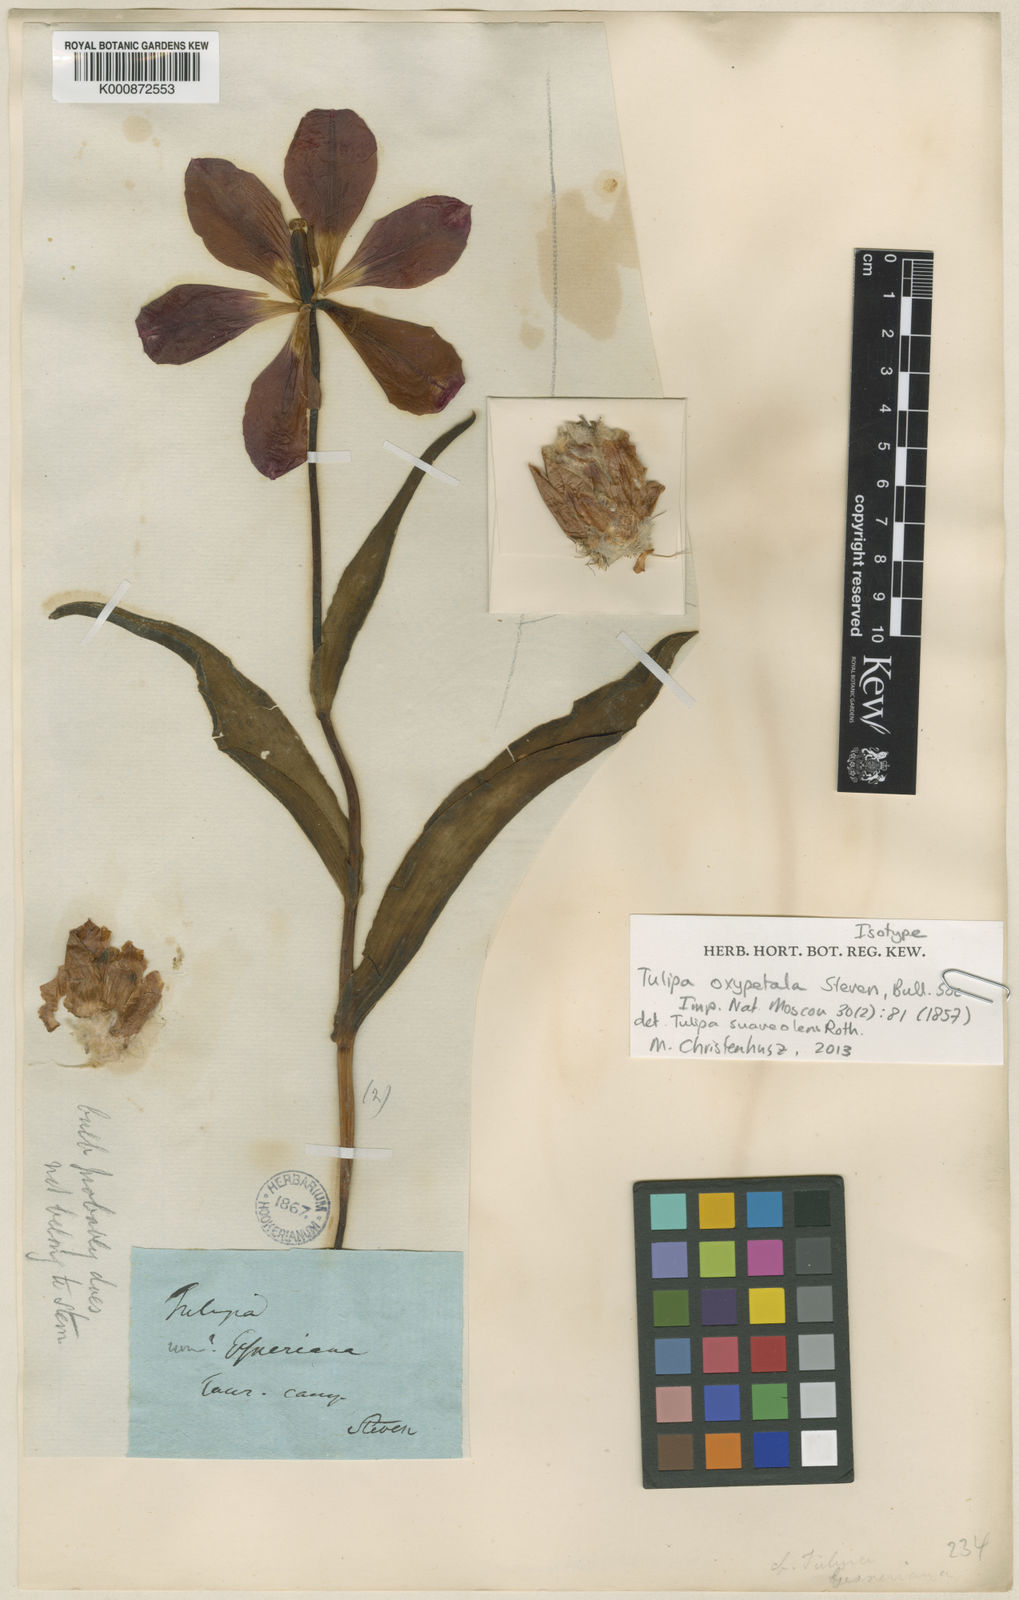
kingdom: Plantae
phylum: Tracheophyta
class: Liliopsida
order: Liliales
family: Liliaceae
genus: Tulipa
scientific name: Tulipa suaveolens
